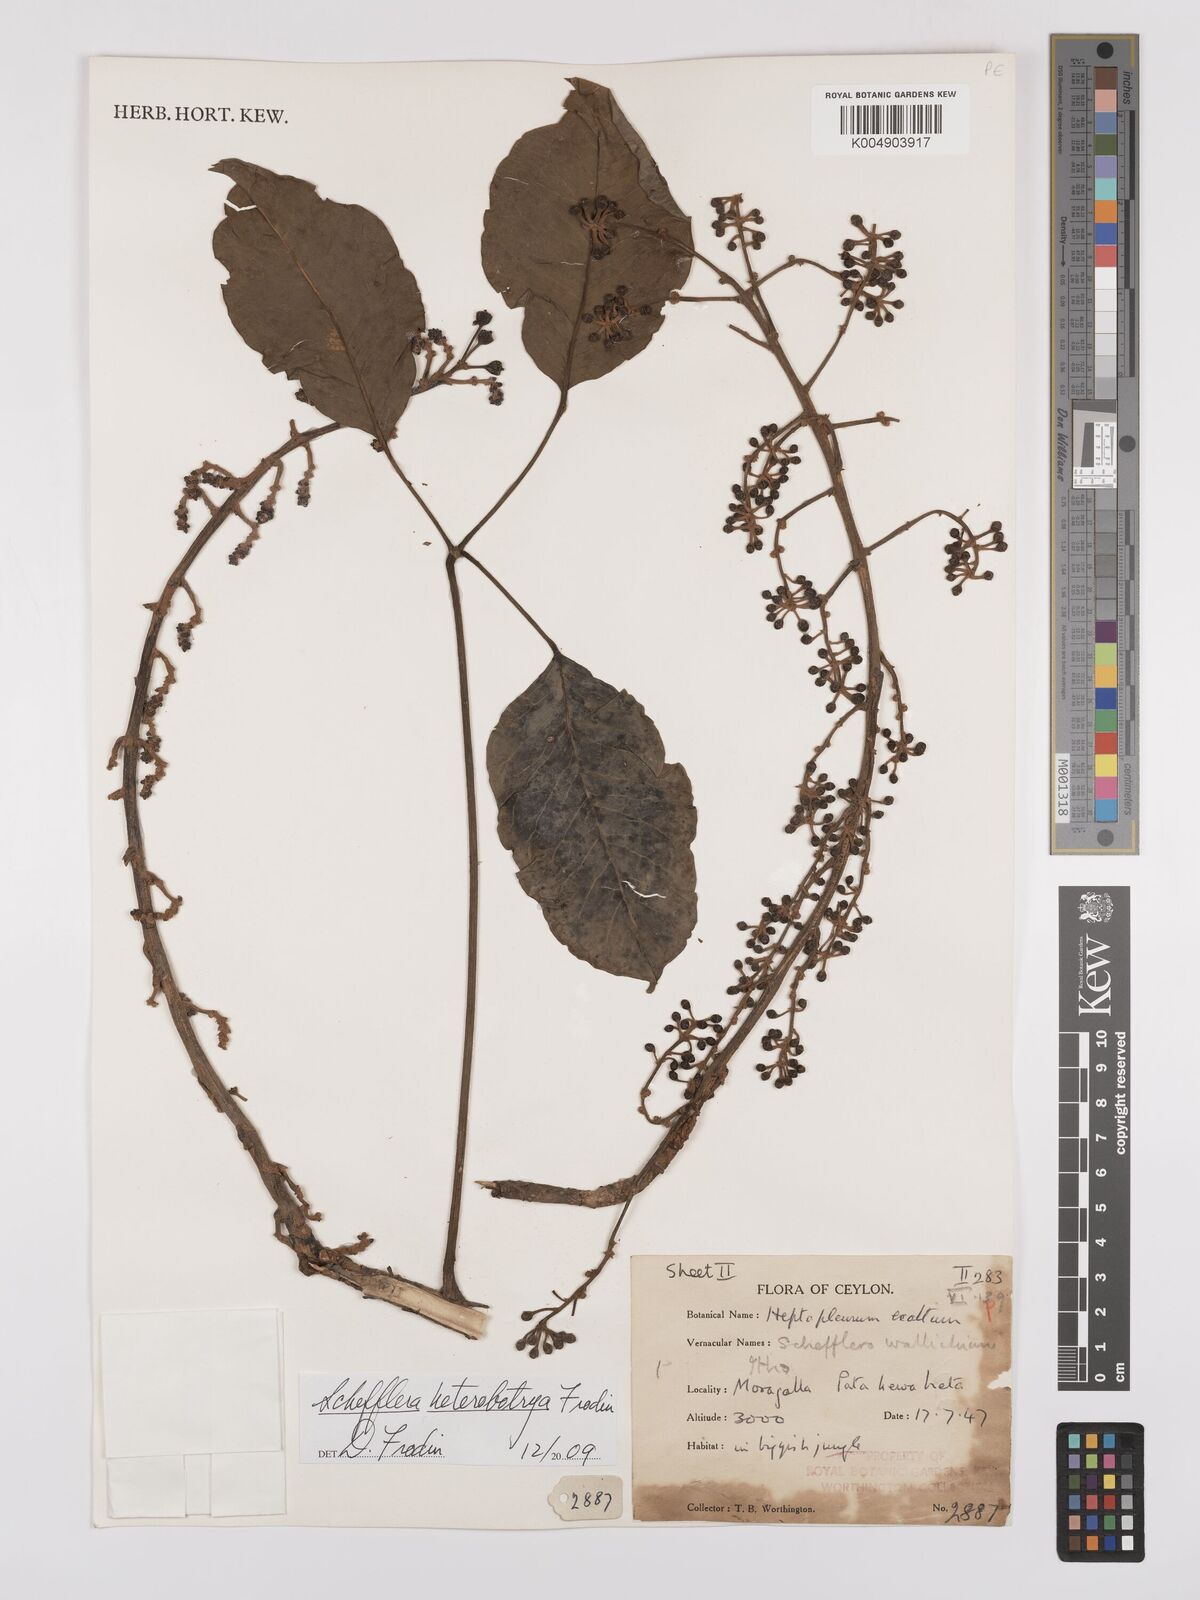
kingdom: Plantae
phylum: Tracheophyta
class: Magnoliopsida
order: Apiales
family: Araliaceae
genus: Heptapleurum
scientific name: Heptapleurum
